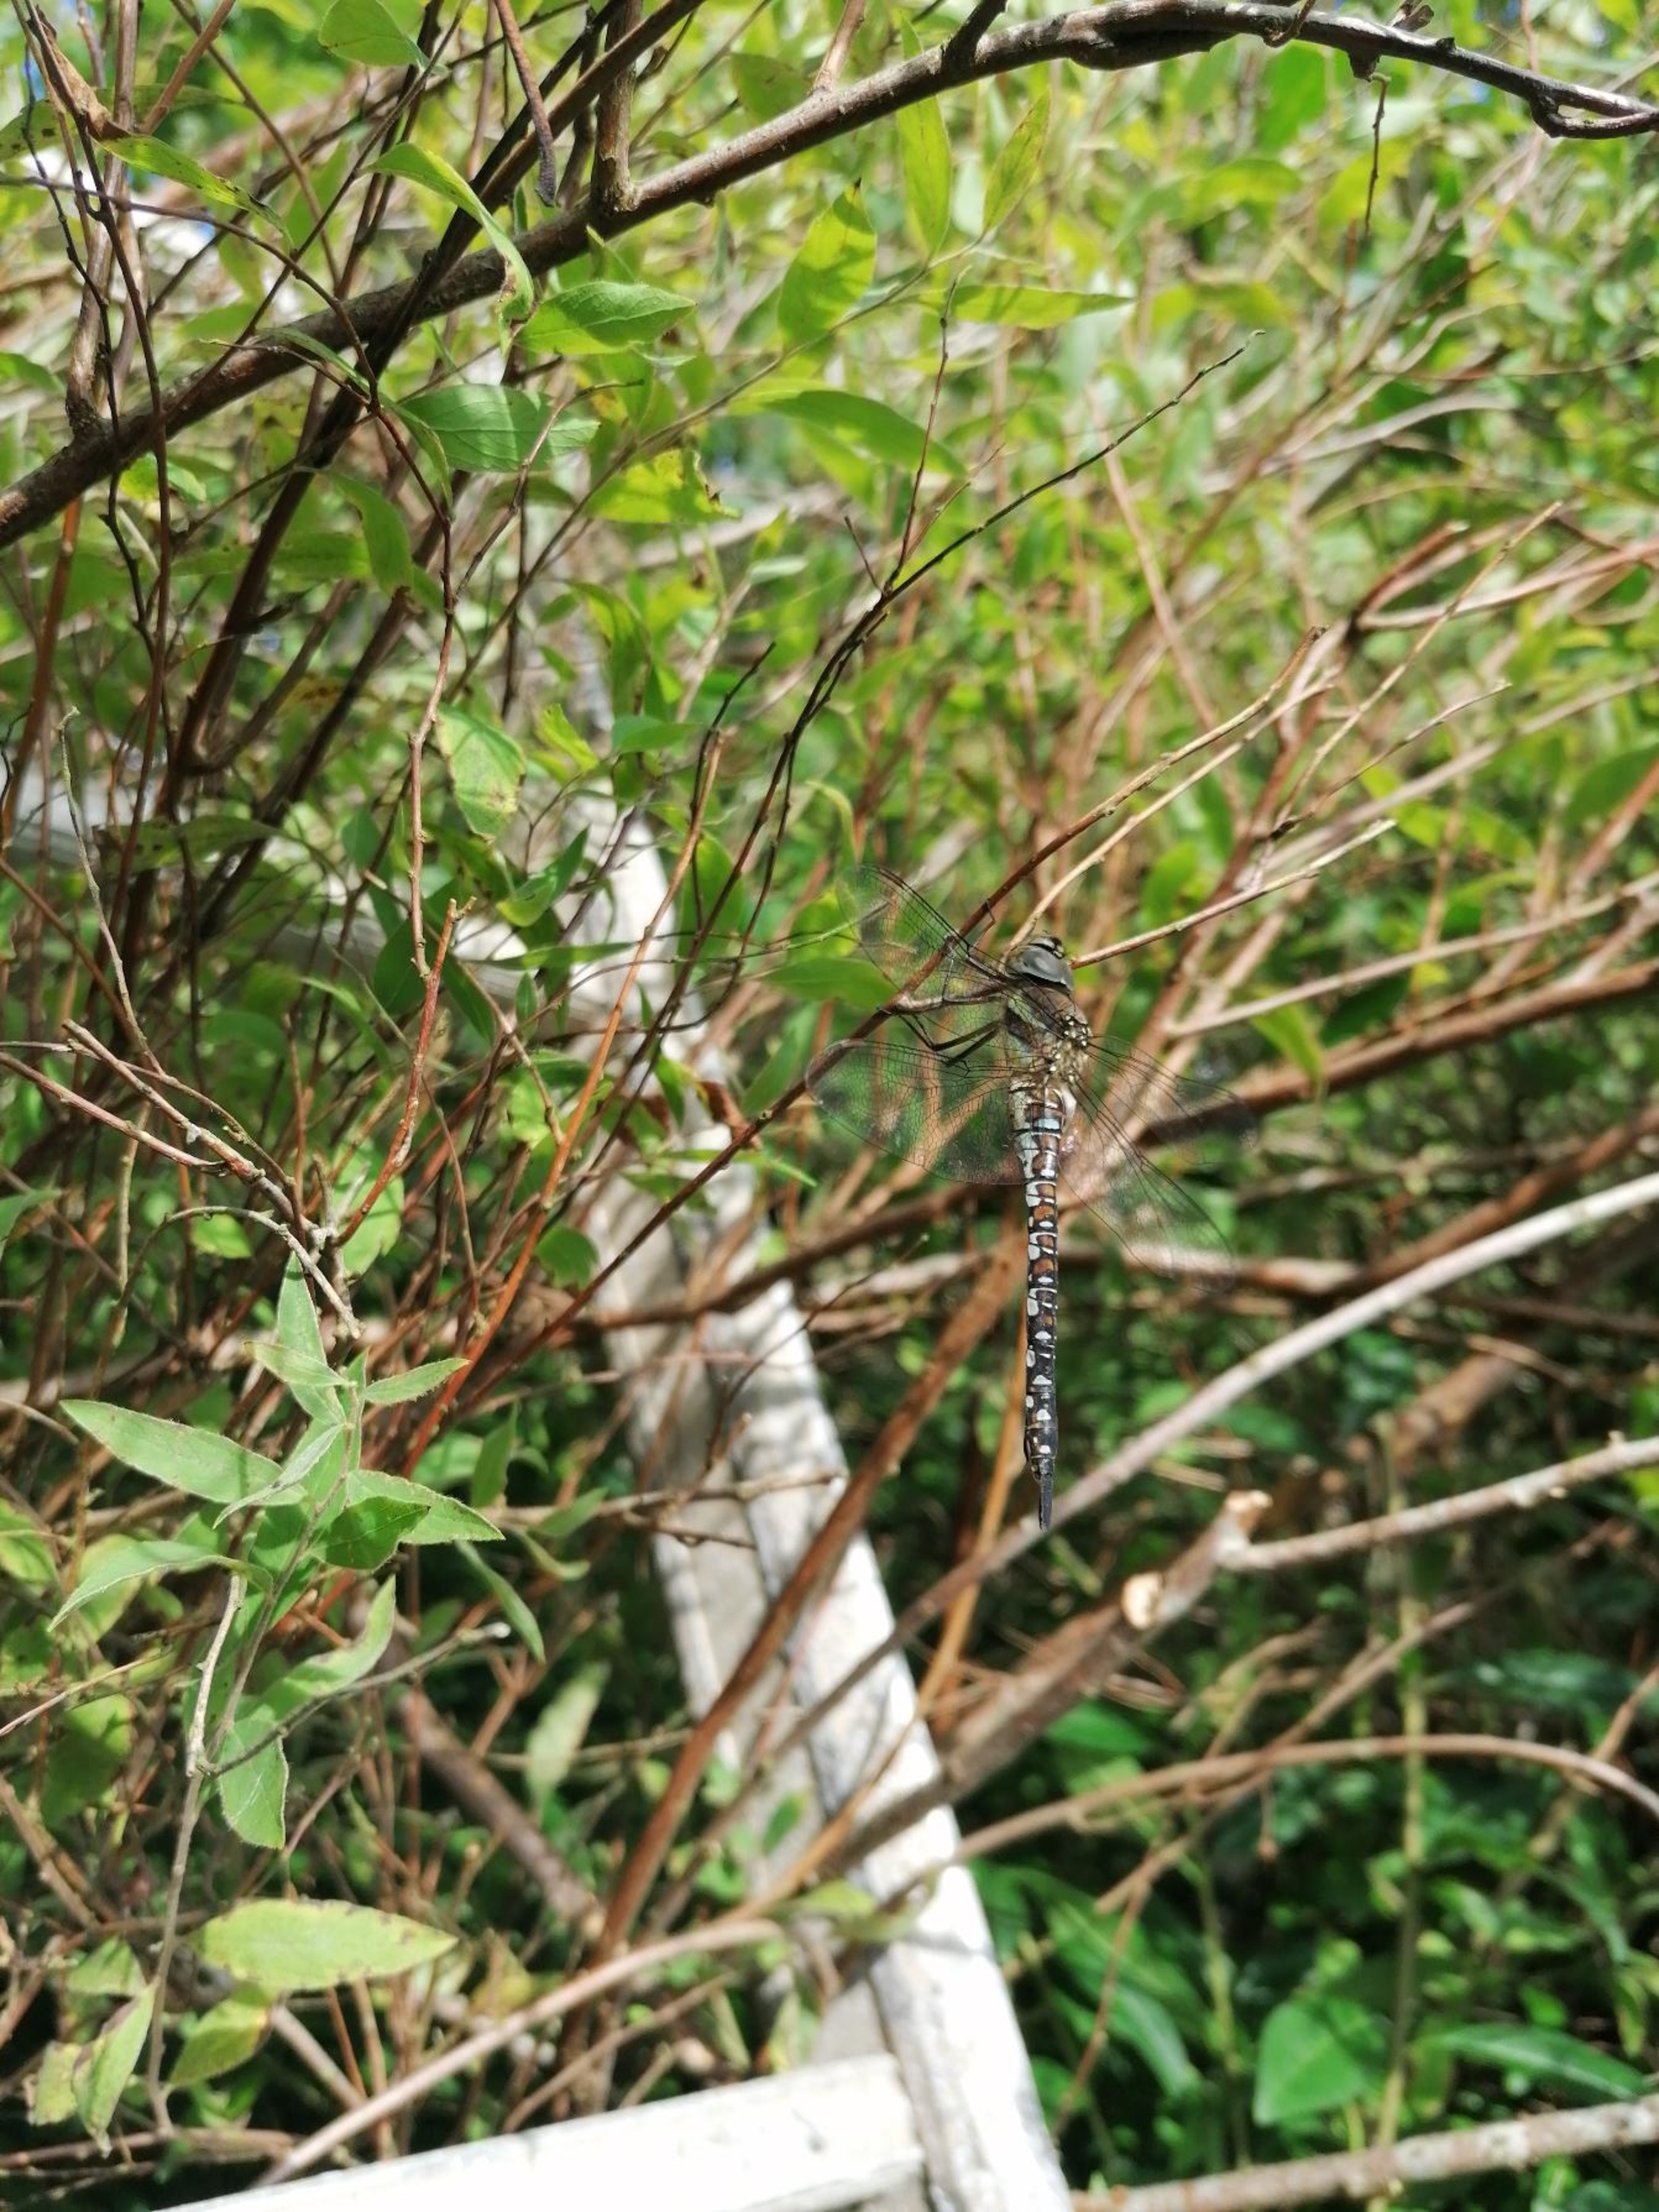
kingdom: Animalia
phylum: Arthropoda
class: Insecta
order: Odonata
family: Aeshnidae
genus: Aeshna
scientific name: Aeshna mixta
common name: Efterårs-mosaikguldsmed
